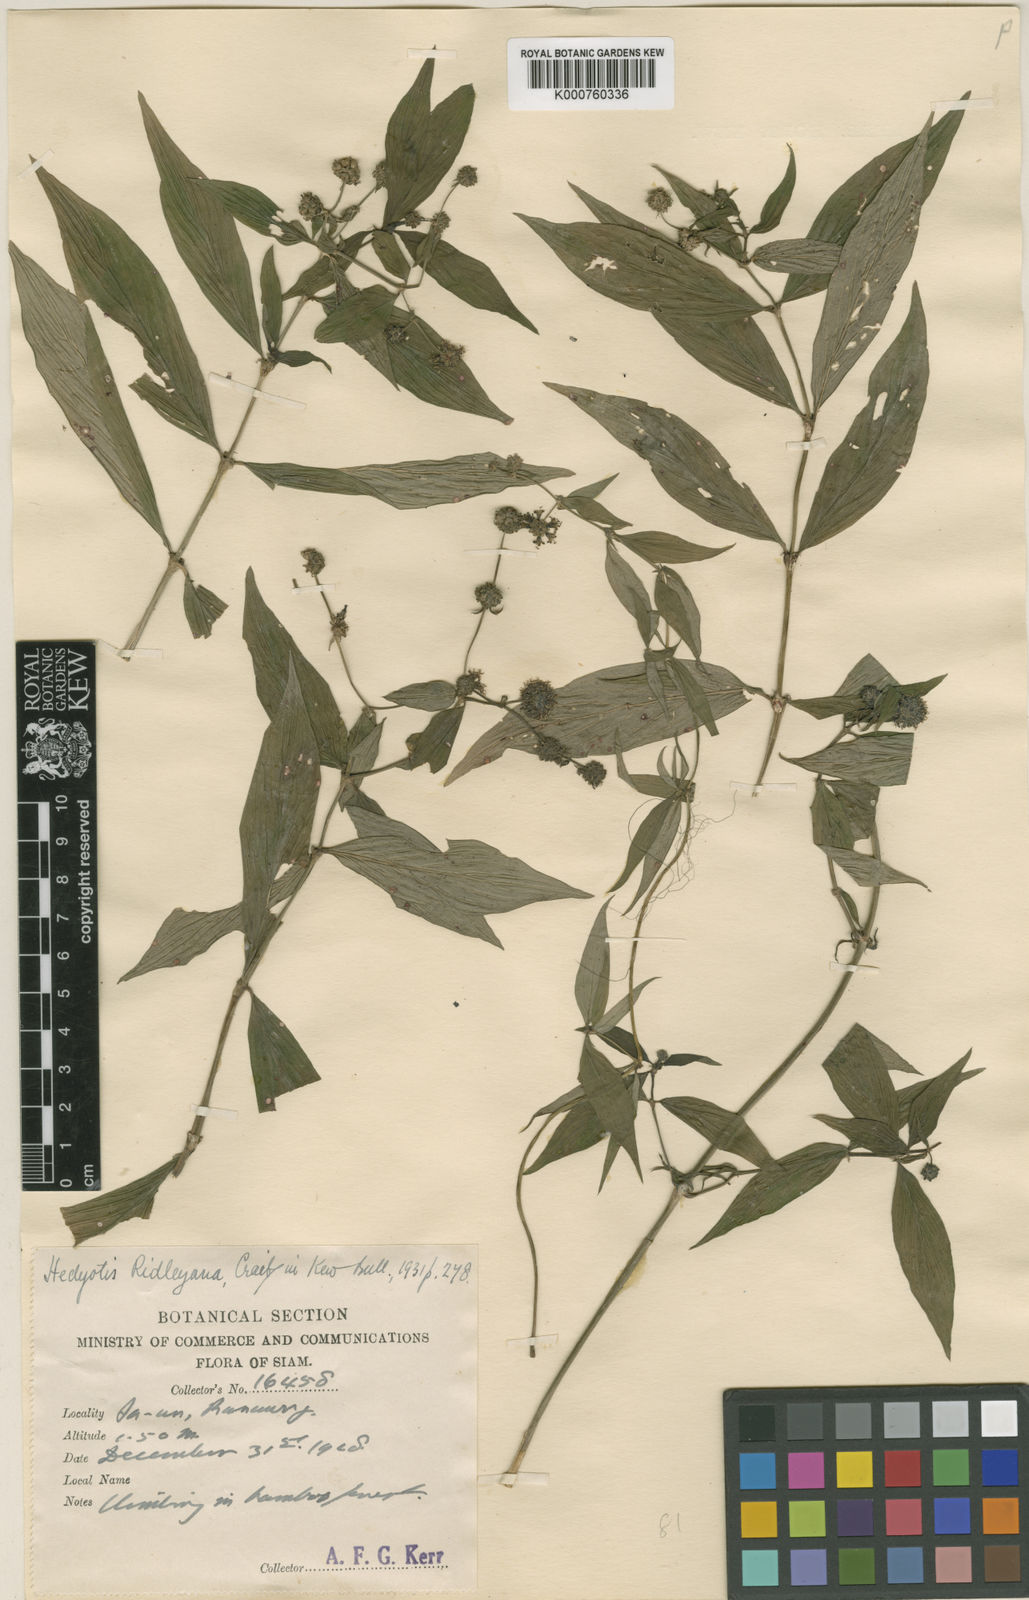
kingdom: Plantae
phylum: Tracheophyta
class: Magnoliopsida
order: Gentianales
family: Rubiaceae
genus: Dimetia
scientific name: Dimetia ridleyana
